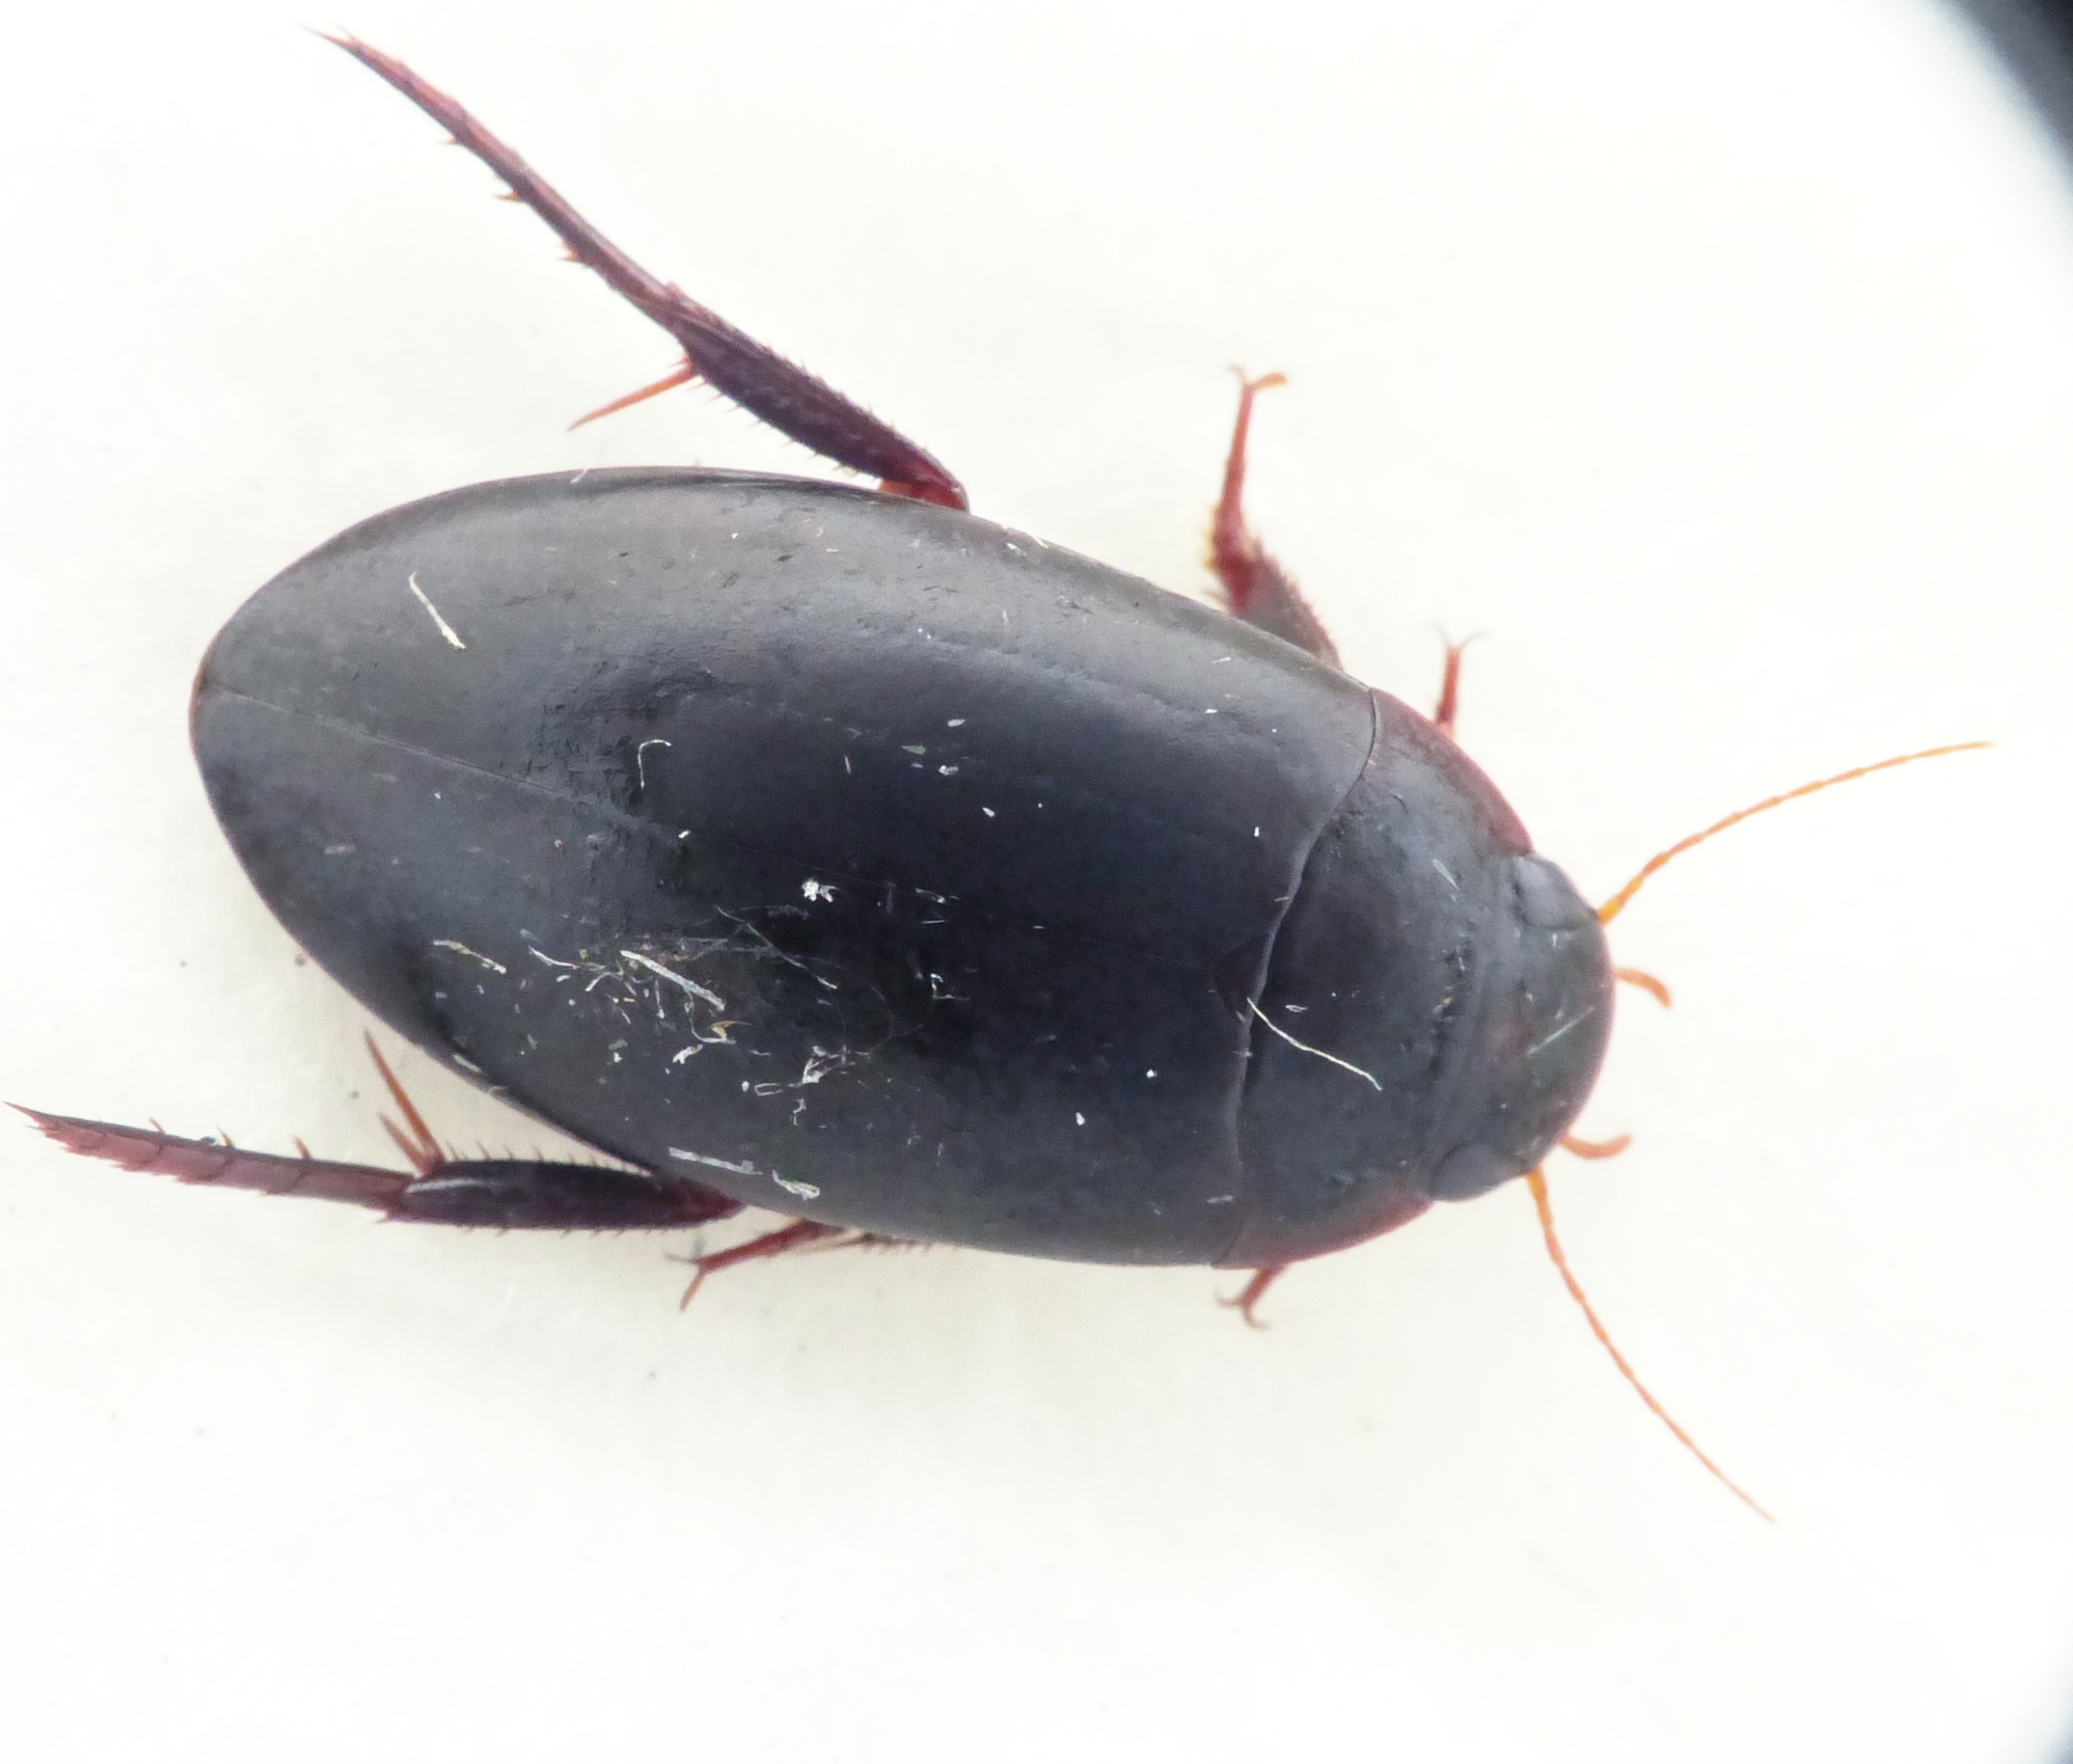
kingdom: Animalia
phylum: Arthropoda
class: Insecta
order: Coleoptera
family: Dytiscidae
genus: Nartus
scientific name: Nartus grapii
